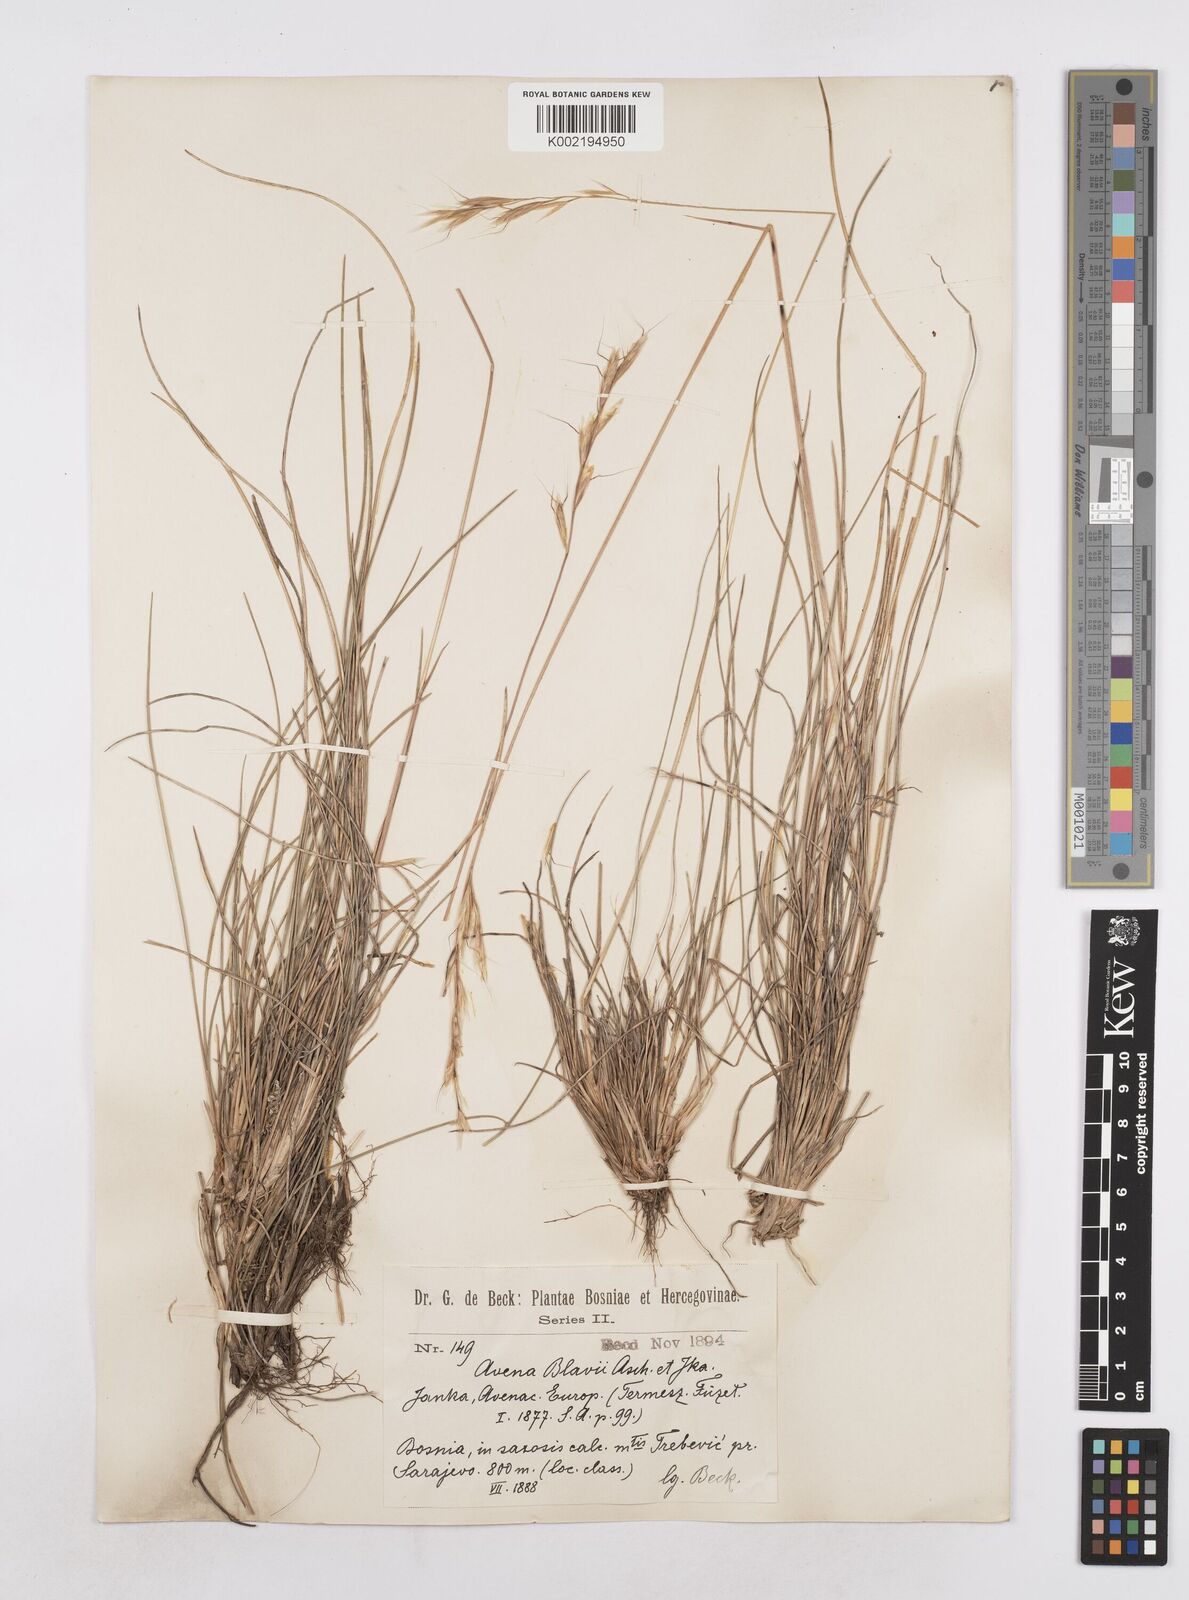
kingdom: Plantae
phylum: Tracheophyta
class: Liliopsida
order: Poales
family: Poaceae
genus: Helictochloa
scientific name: Helictochloa blaui
